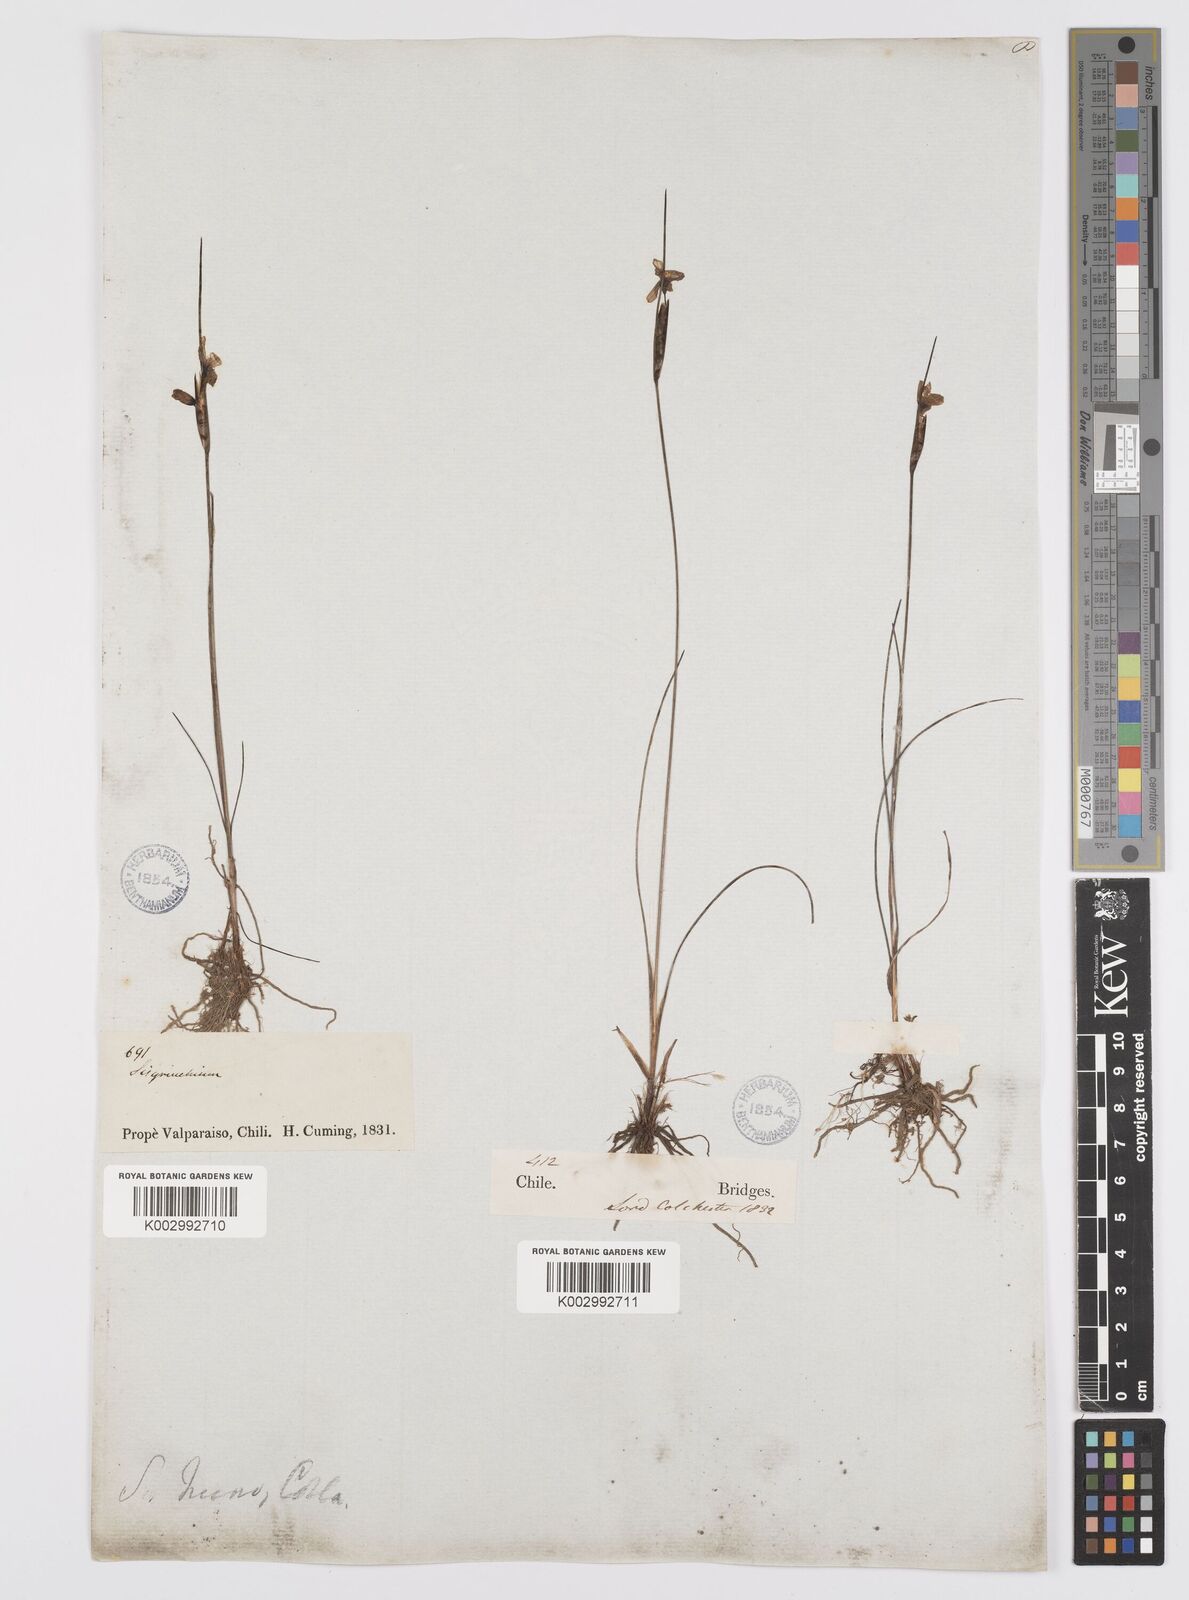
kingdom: Plantae
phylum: Tracheophyta
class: Liliopsida
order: Asparagales
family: Iridaceae
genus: Olsynium
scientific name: Olsynium scirpoideum
